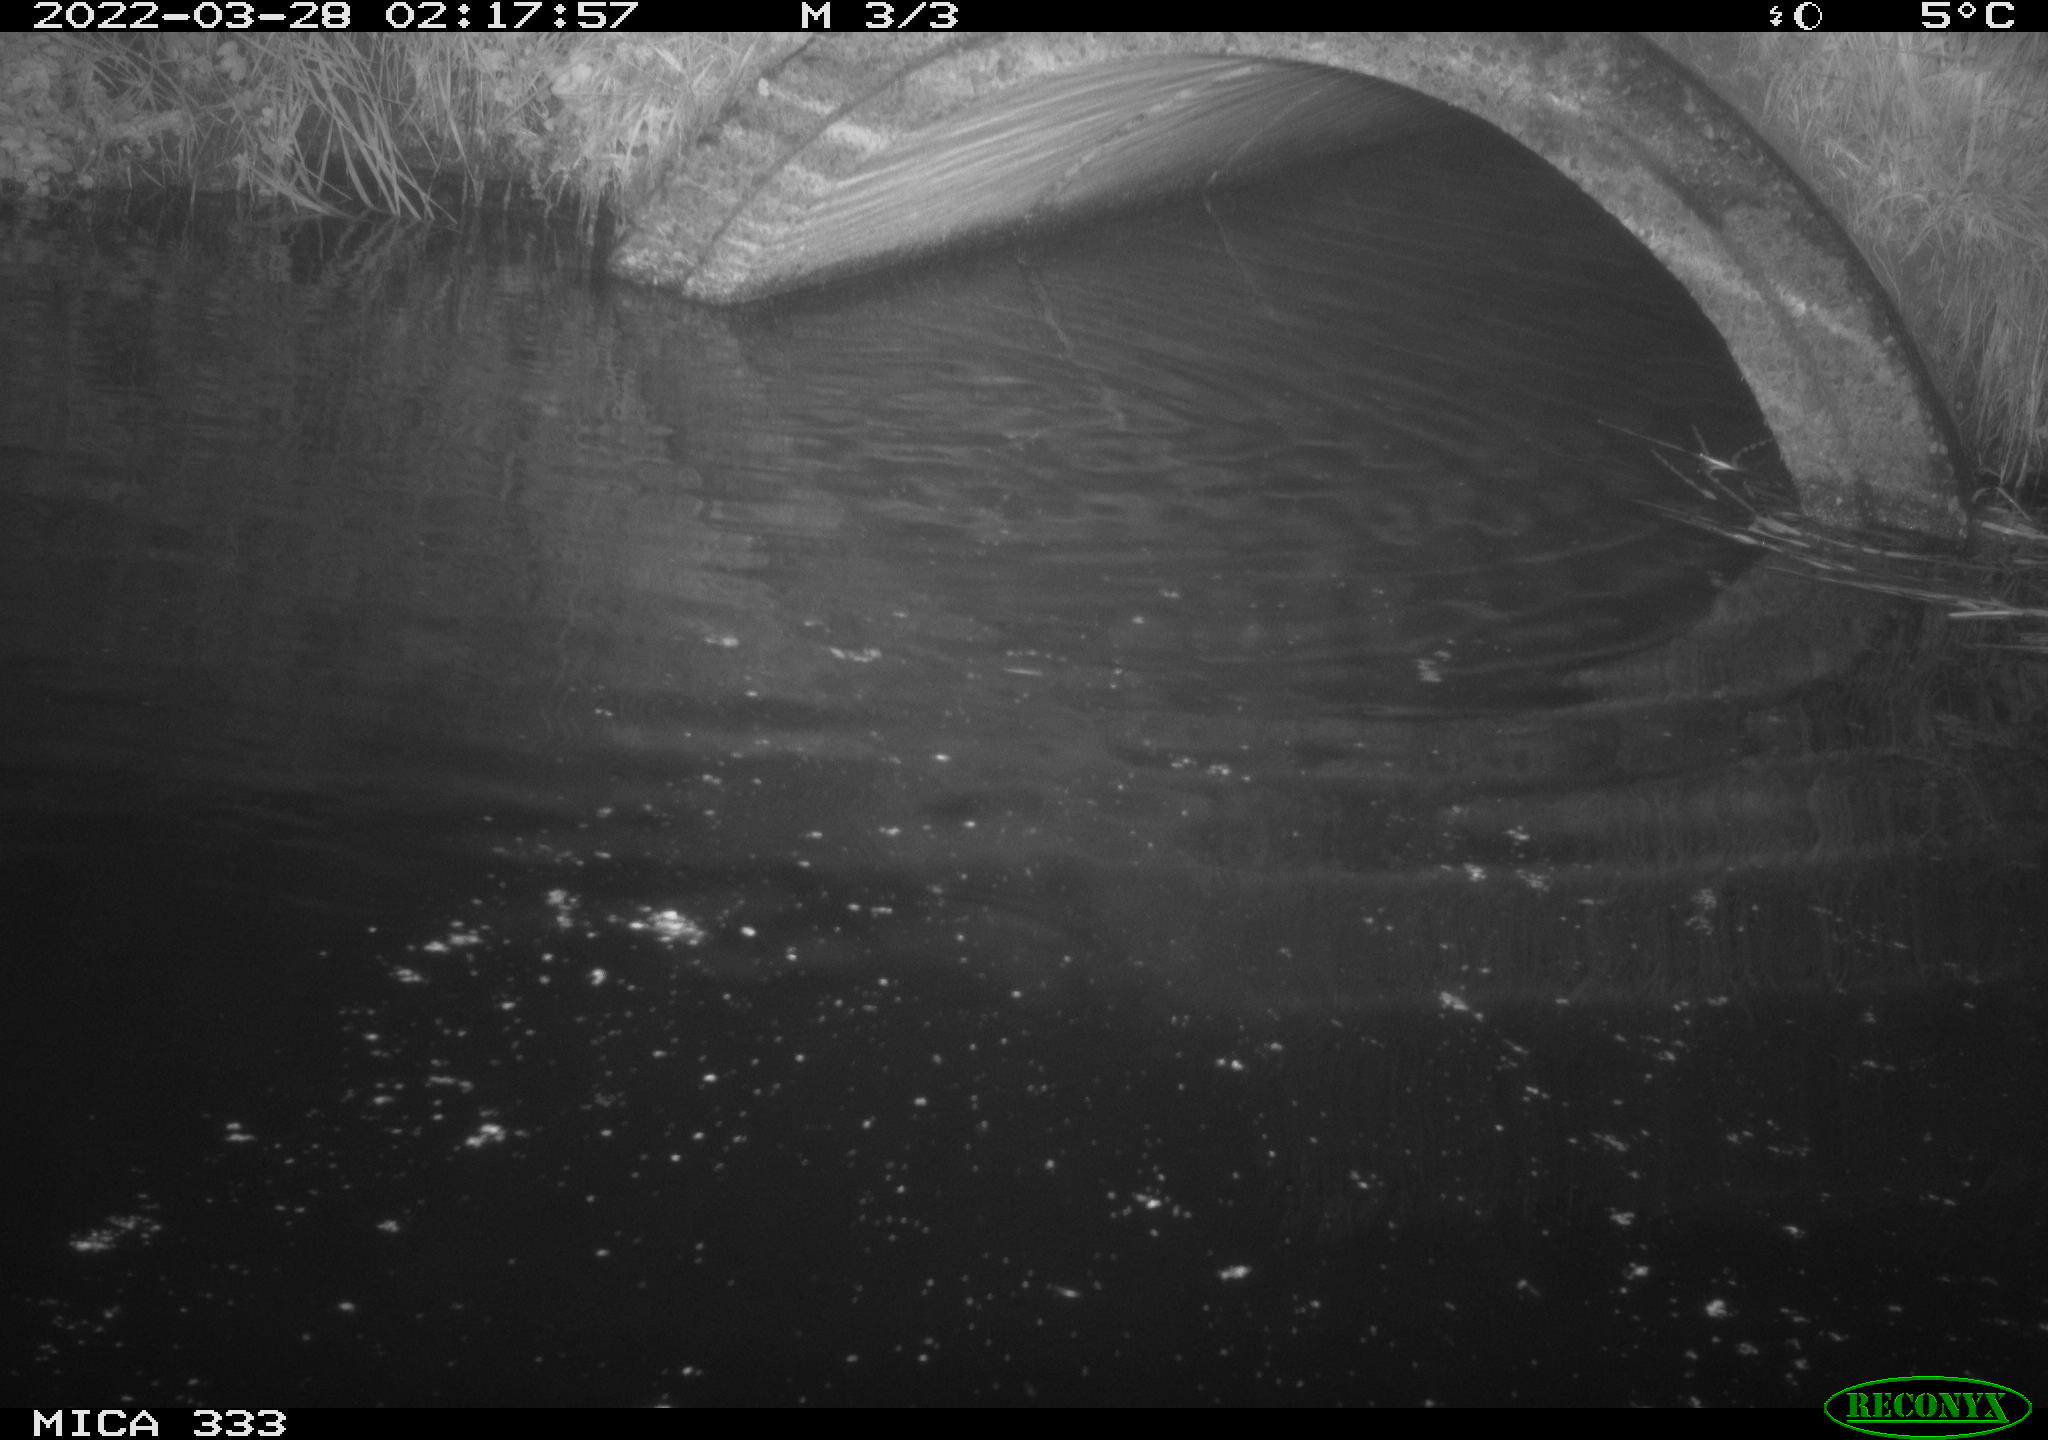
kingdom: Animalia
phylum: Chordata
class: Mammalia
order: Rodentia
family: Muridae
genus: Rattus
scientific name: Rattus norvegicus
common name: Brown rat
